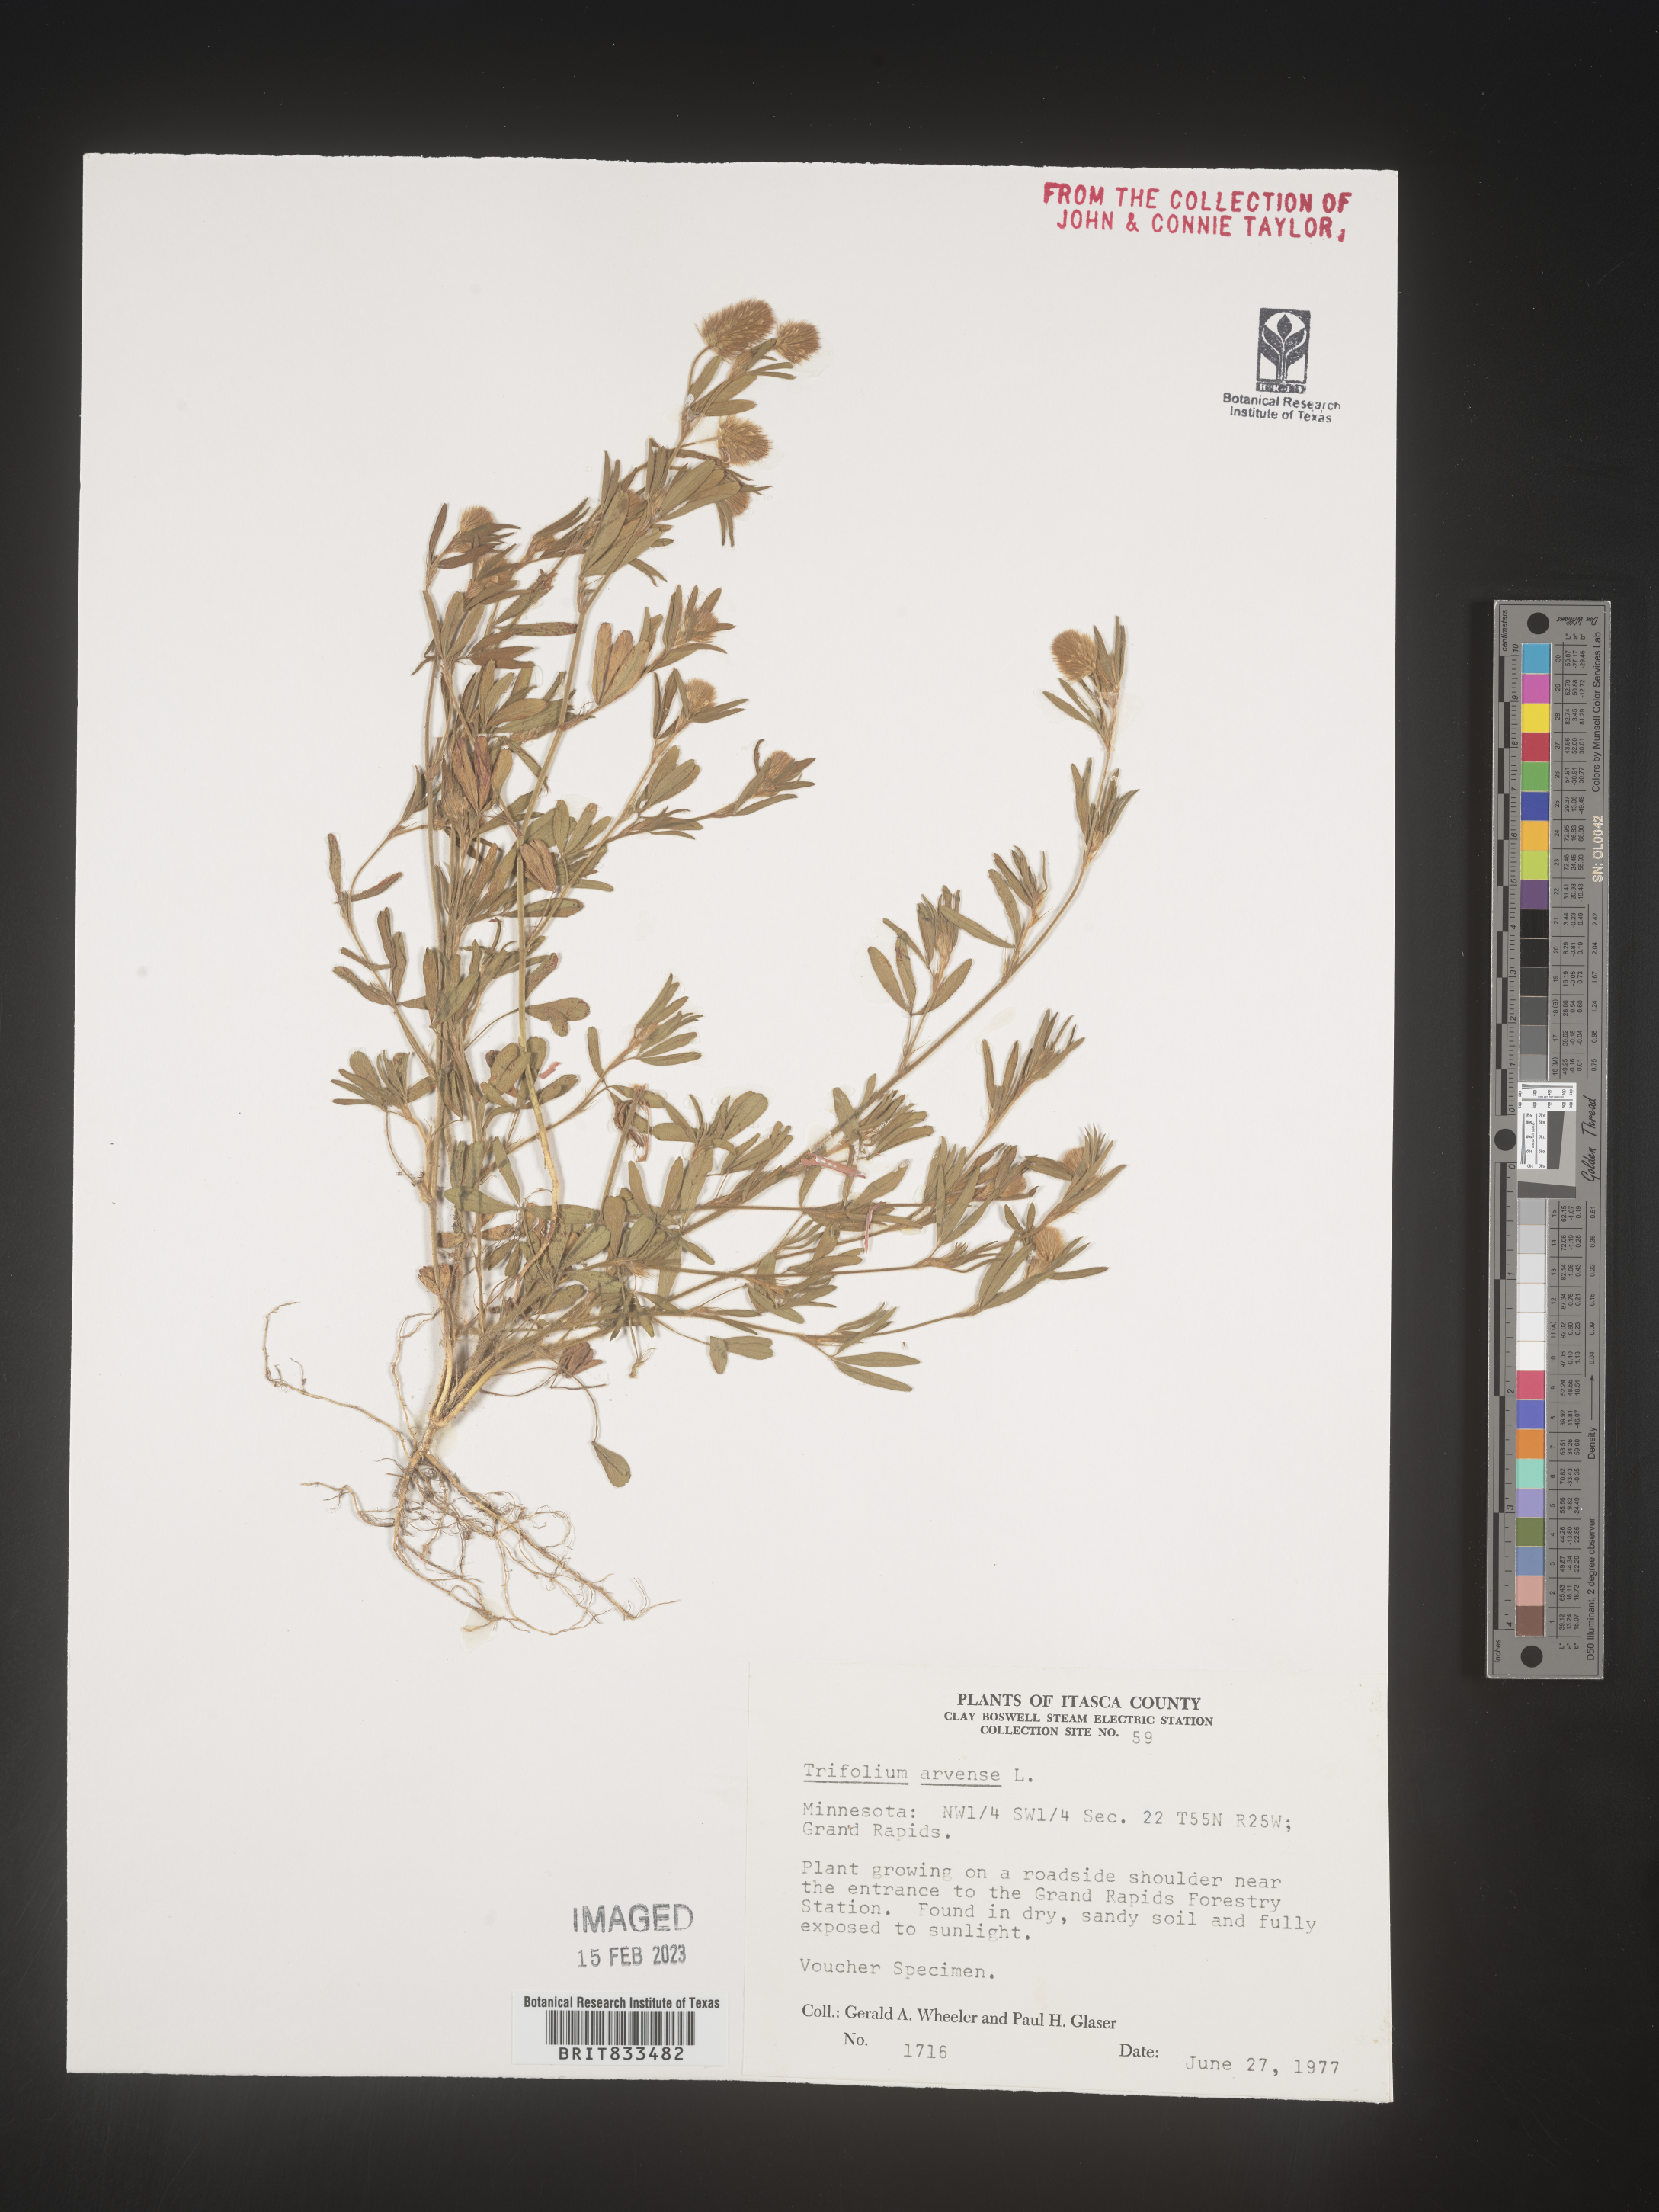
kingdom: Plantae
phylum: Tracheophyta
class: Magnoliopsida
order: Fabales
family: Fabaceae
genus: Trifolium
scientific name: Trifolium arvense
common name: Hare's-foot clover
